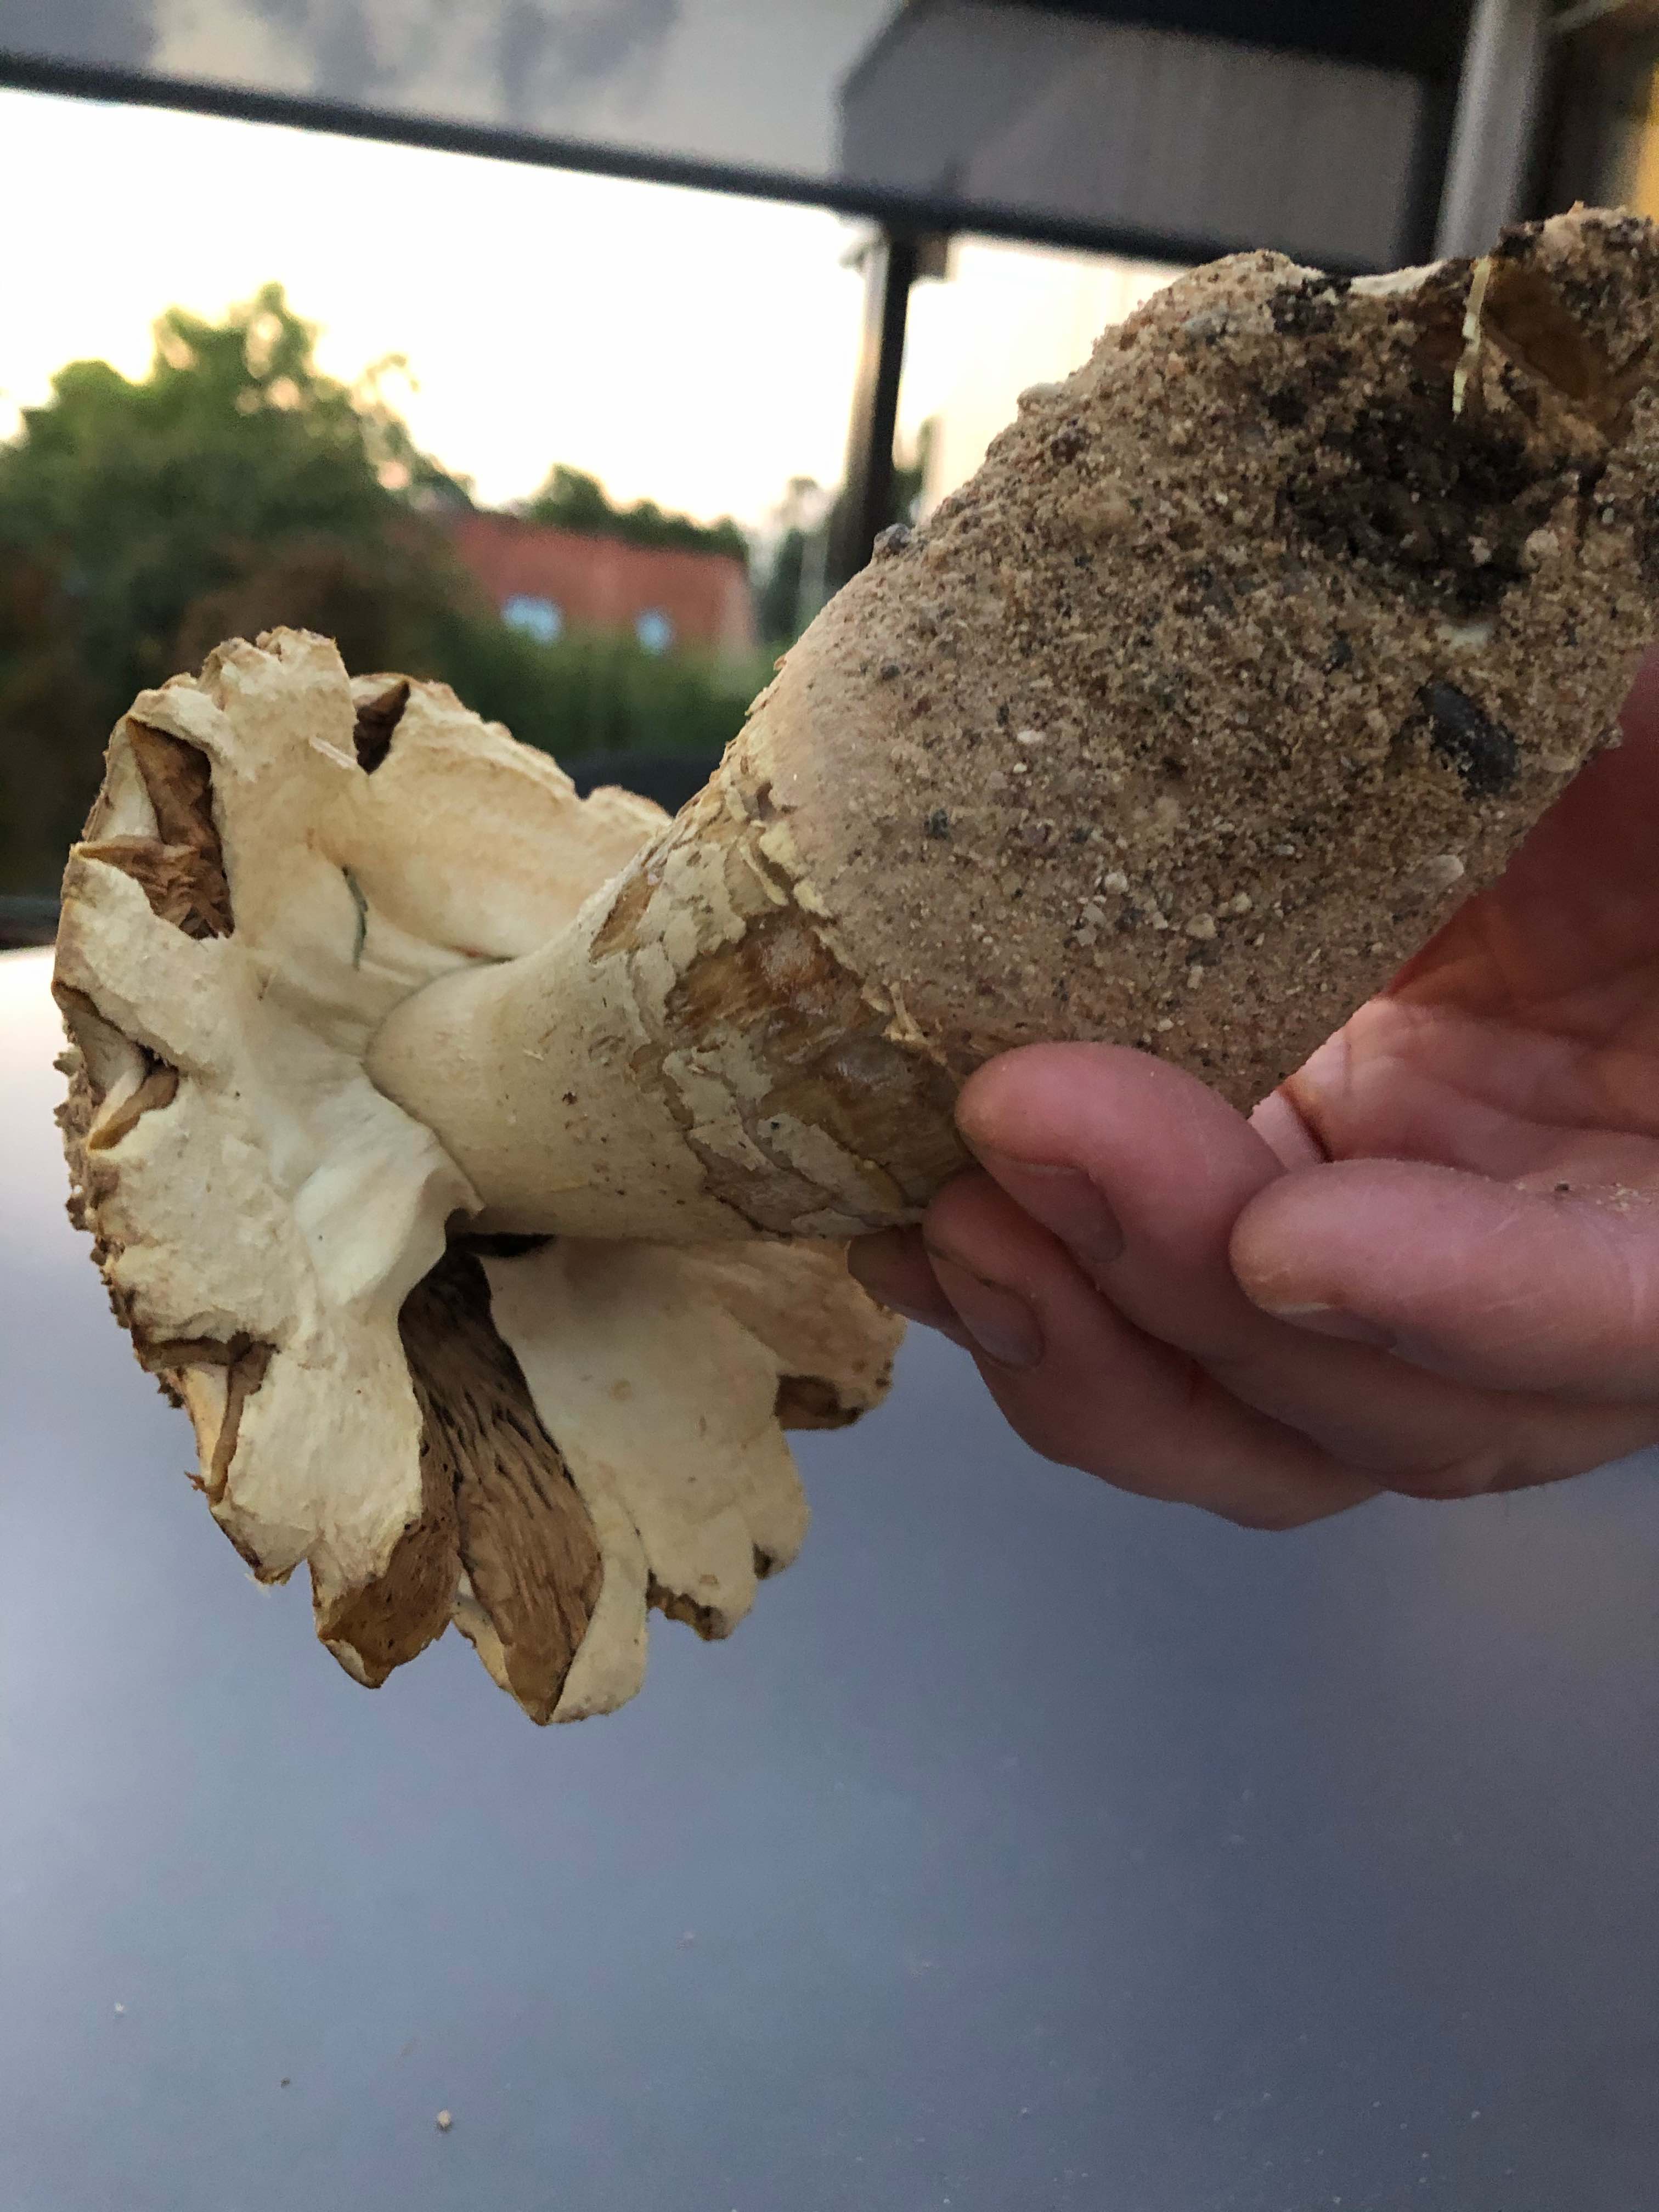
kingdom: Fungi
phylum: Basidiomycota
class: Agaricomycetes
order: Agaricales
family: Agaricaceae
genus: Agaricus
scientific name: Agaricus
